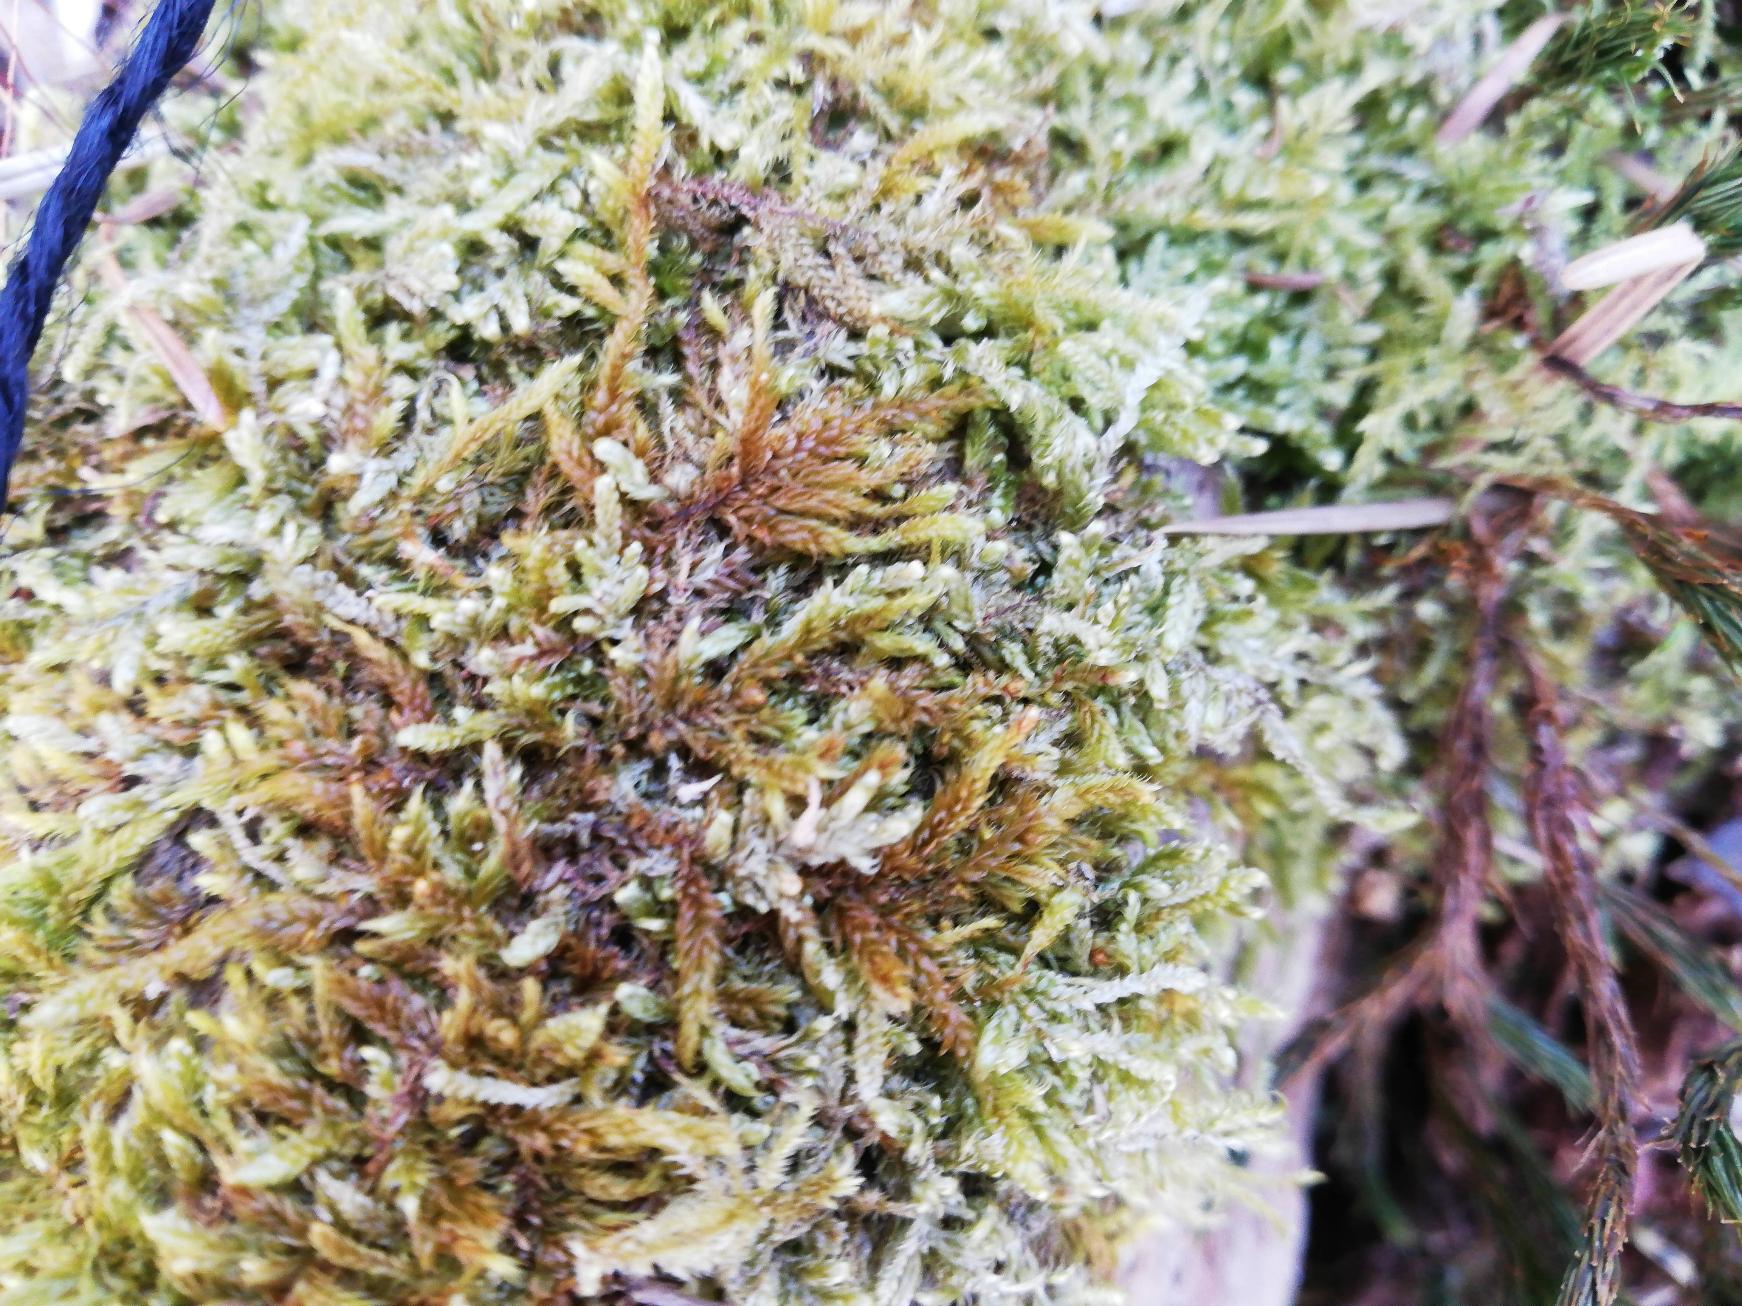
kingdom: Plantae
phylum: Bryophyta
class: Bryopsida
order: Hypnales
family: Hypnaceae
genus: Hypnum
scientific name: Hypnum cupressiforme
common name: Almindelig cypresmos
